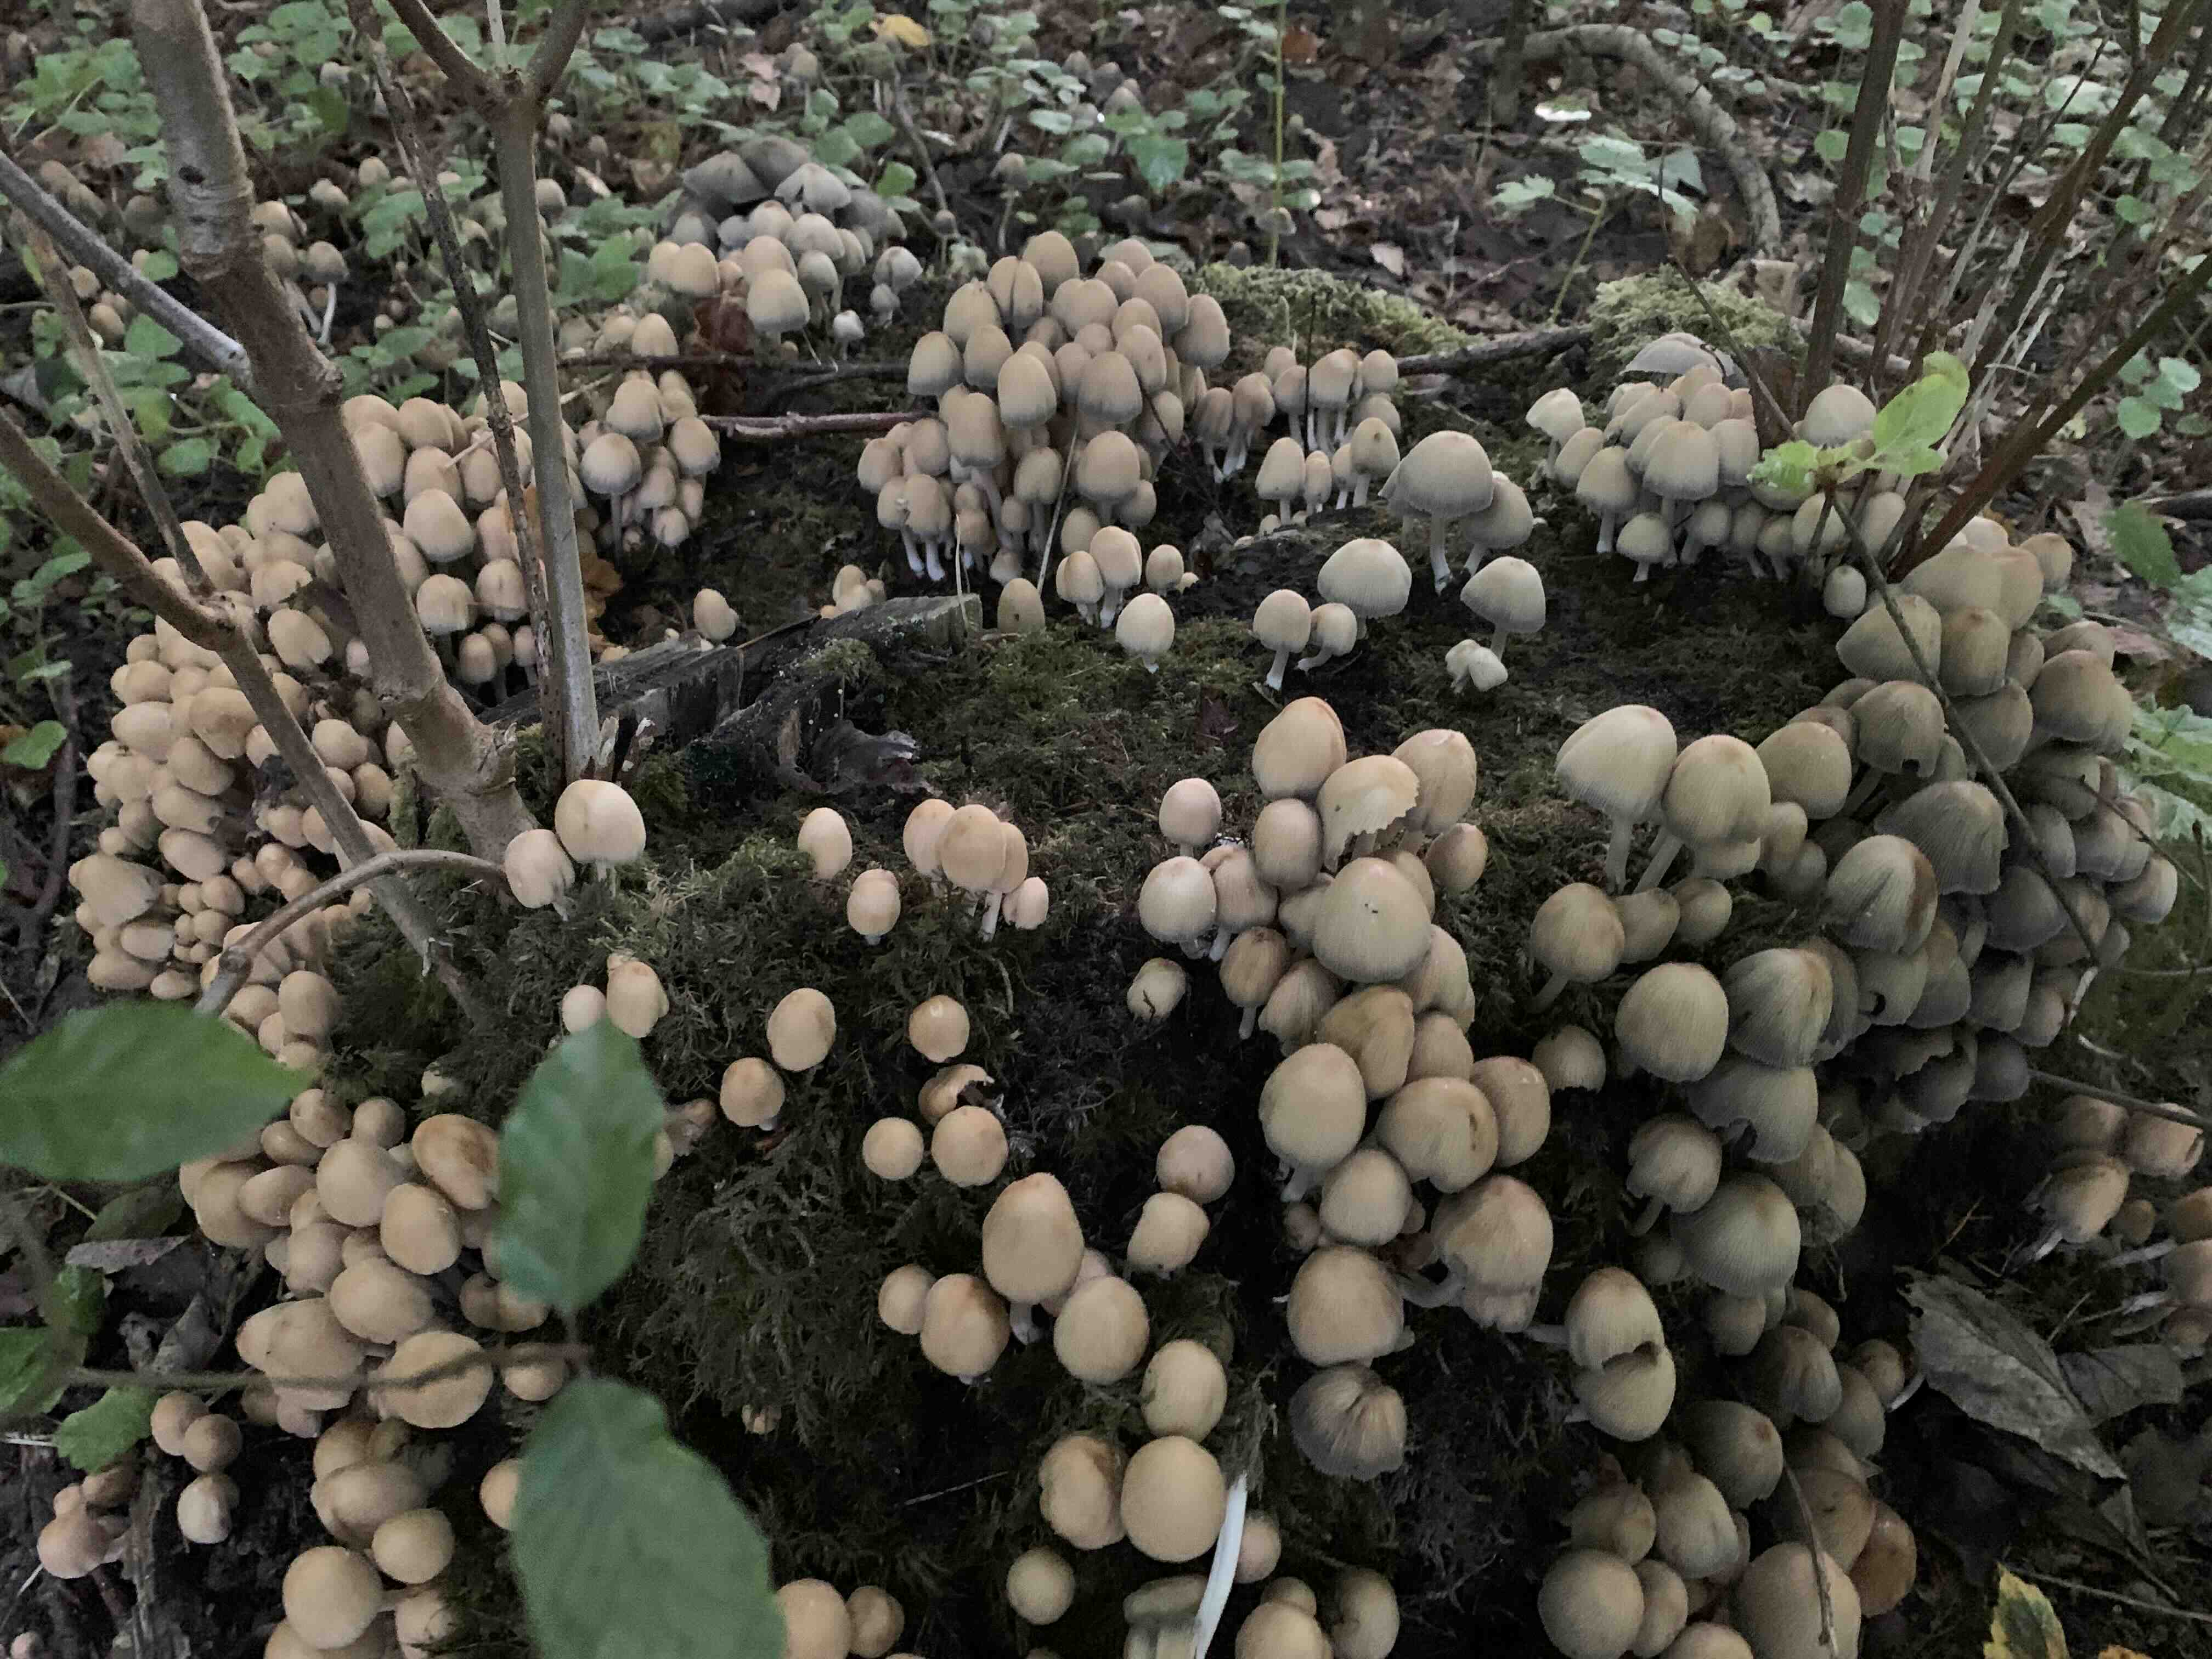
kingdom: Fungi
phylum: Basidiomycota
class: Agaricomycetes
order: Agaricales
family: Psathyrellaceae
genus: Coprinellus
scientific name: Coprinellus micaceus
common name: glimmer-blækhat
